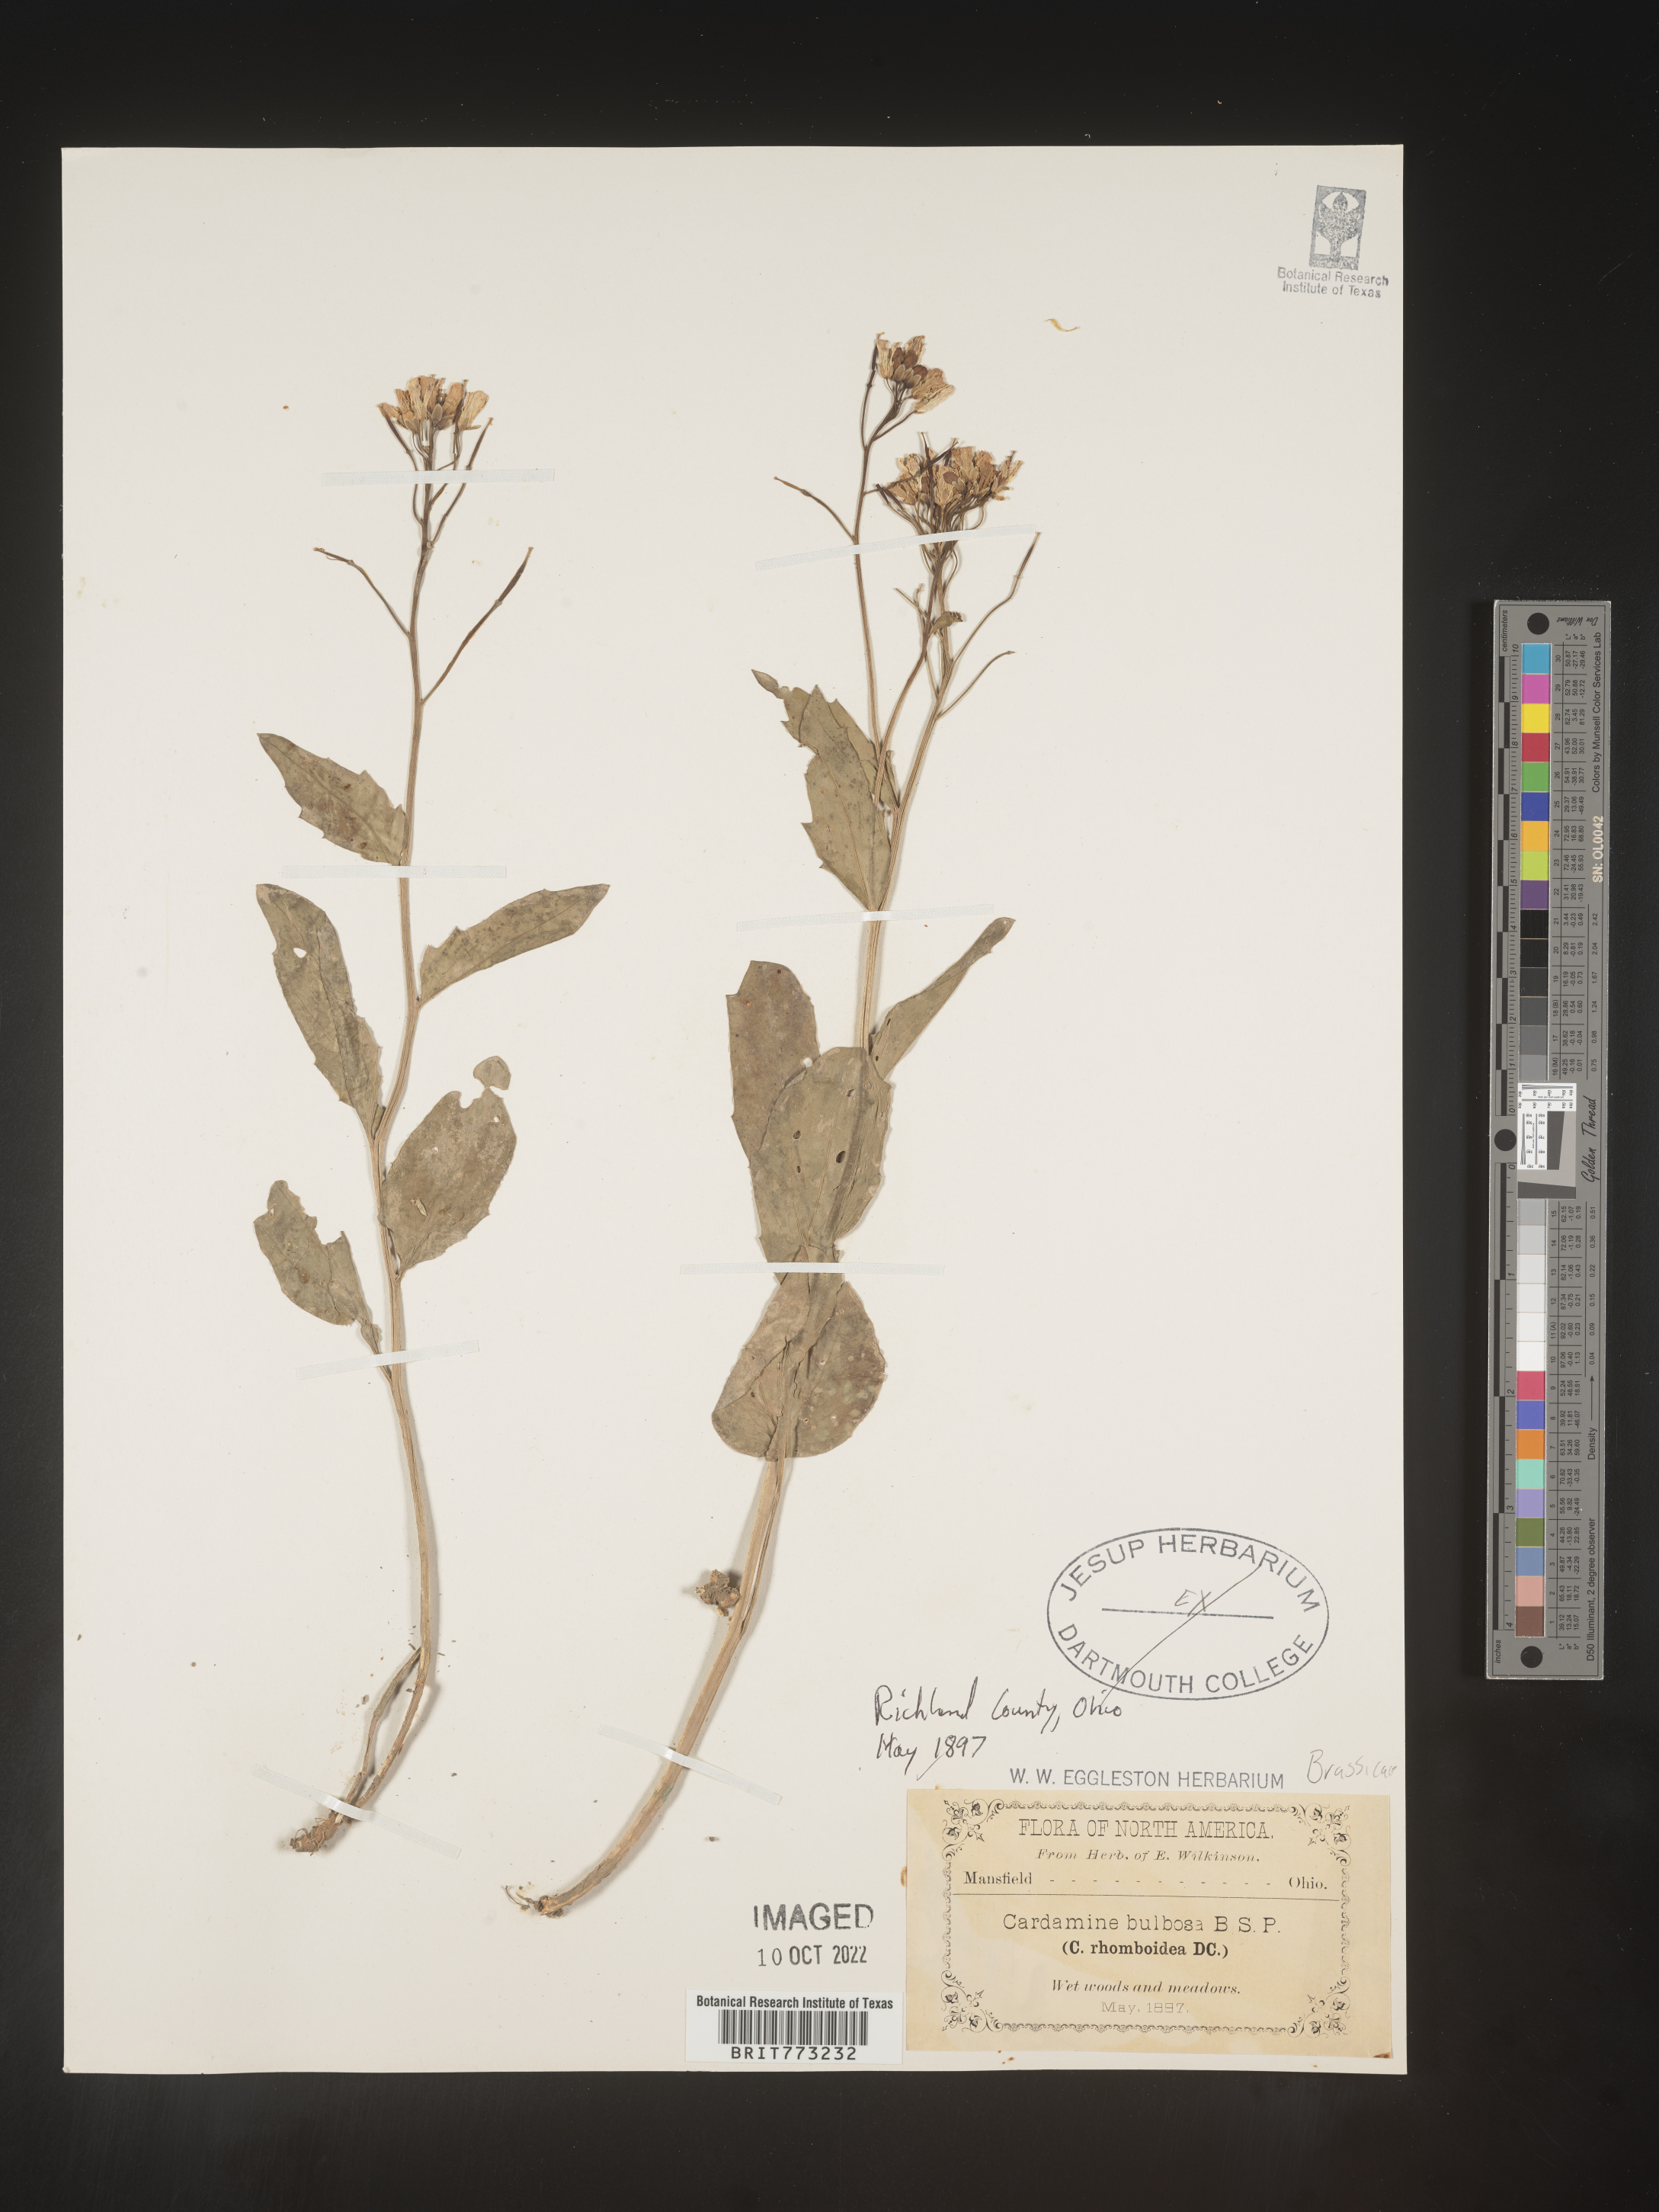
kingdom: Plantae
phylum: Tracheophyta
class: Magnoliopsida
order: Brassicales
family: Brassicaceae
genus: Cardamine
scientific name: Cardamine bulbosa
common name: Spring cress
